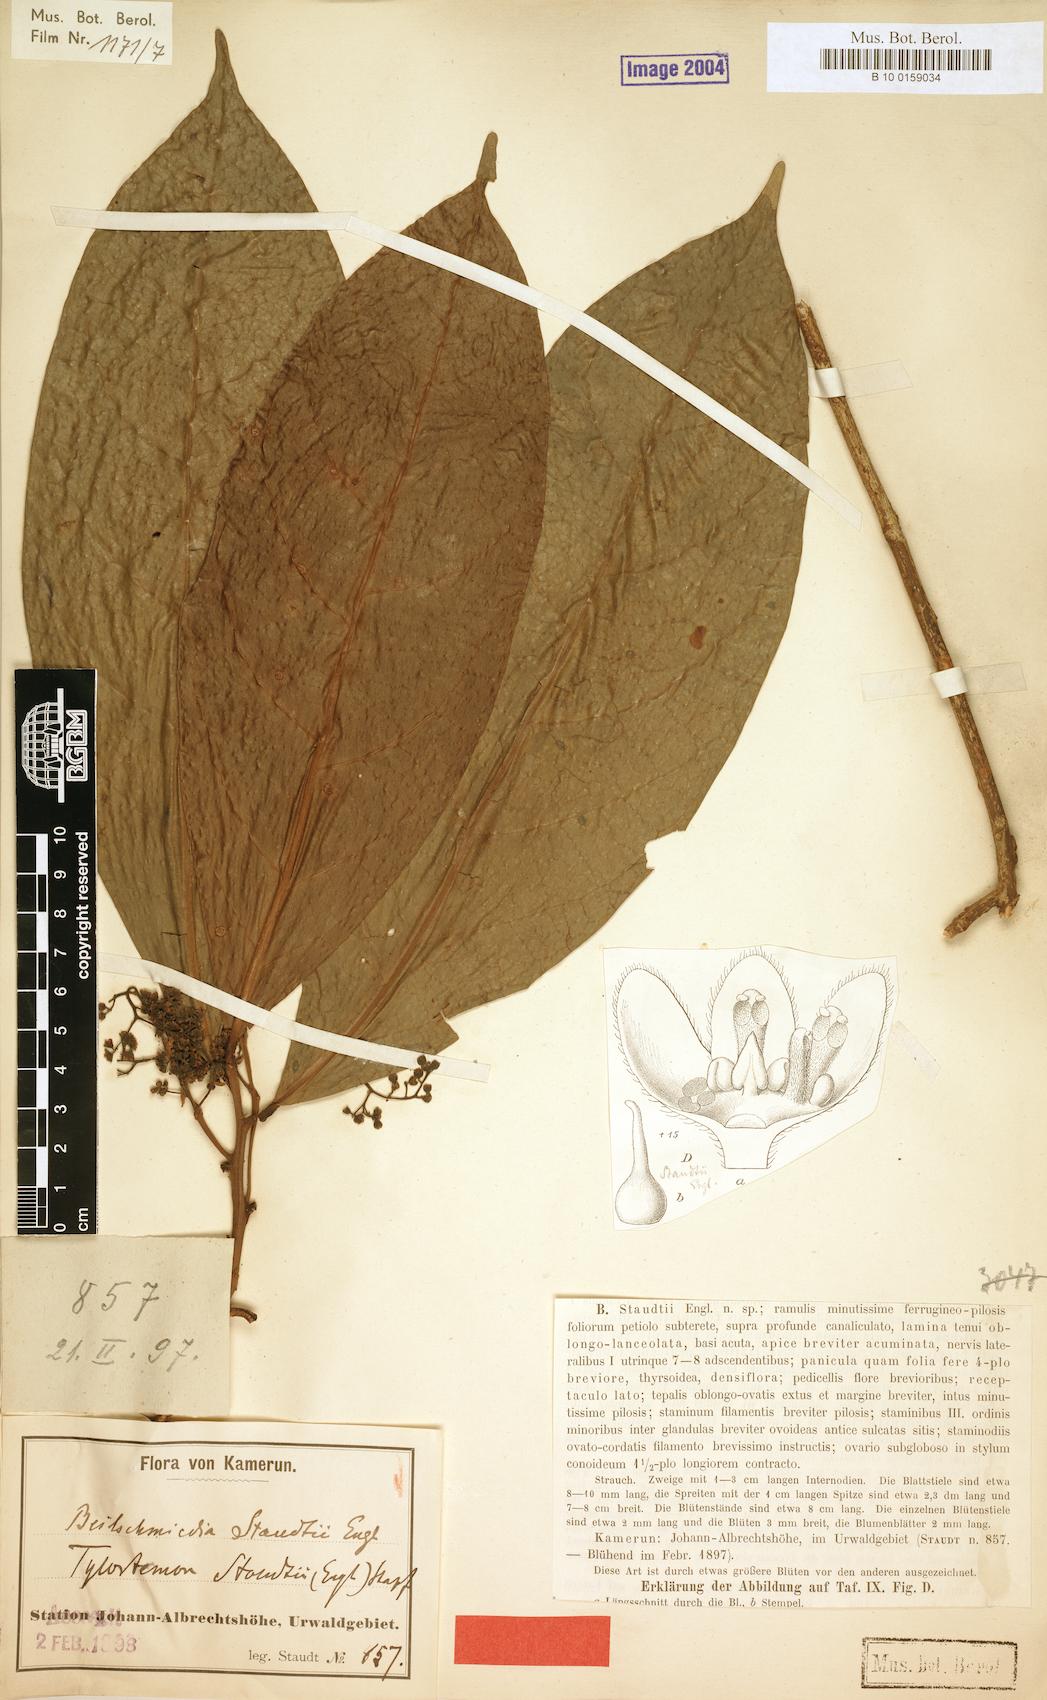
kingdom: Plantae
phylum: Tracheophyta
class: Magnoliopsida
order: Laurales
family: Lauraceae
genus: Beilschmiedia
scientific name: Beilschmiedia staudtii
